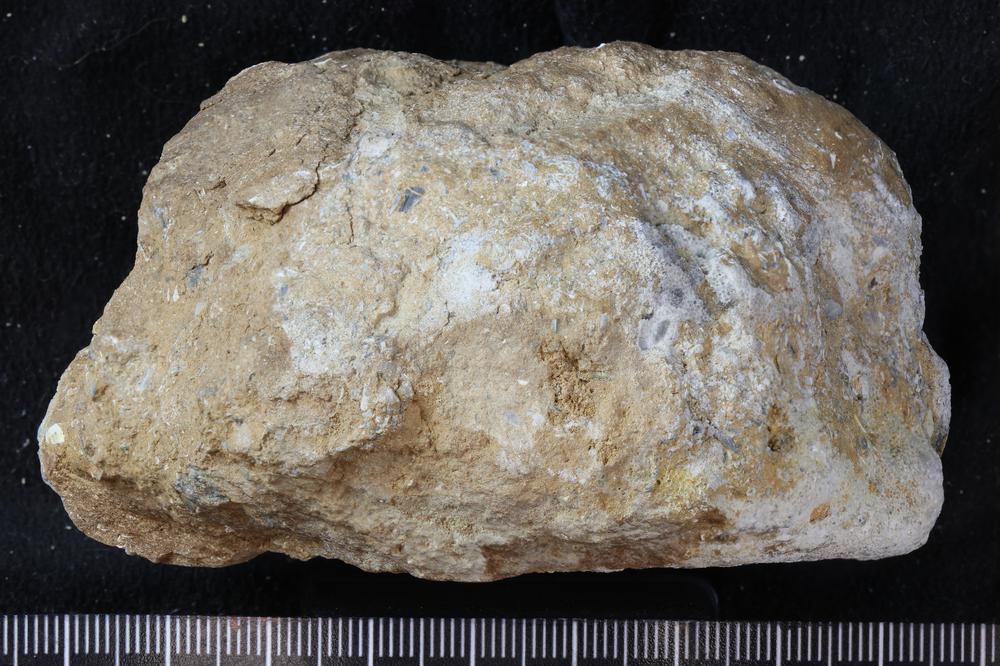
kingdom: Animalia
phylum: Bryozoa
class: Stenolaemata
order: Trepostomatida
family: Diplotrypidae
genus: Diplotrypa
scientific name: Diplotrypa petropolitana
